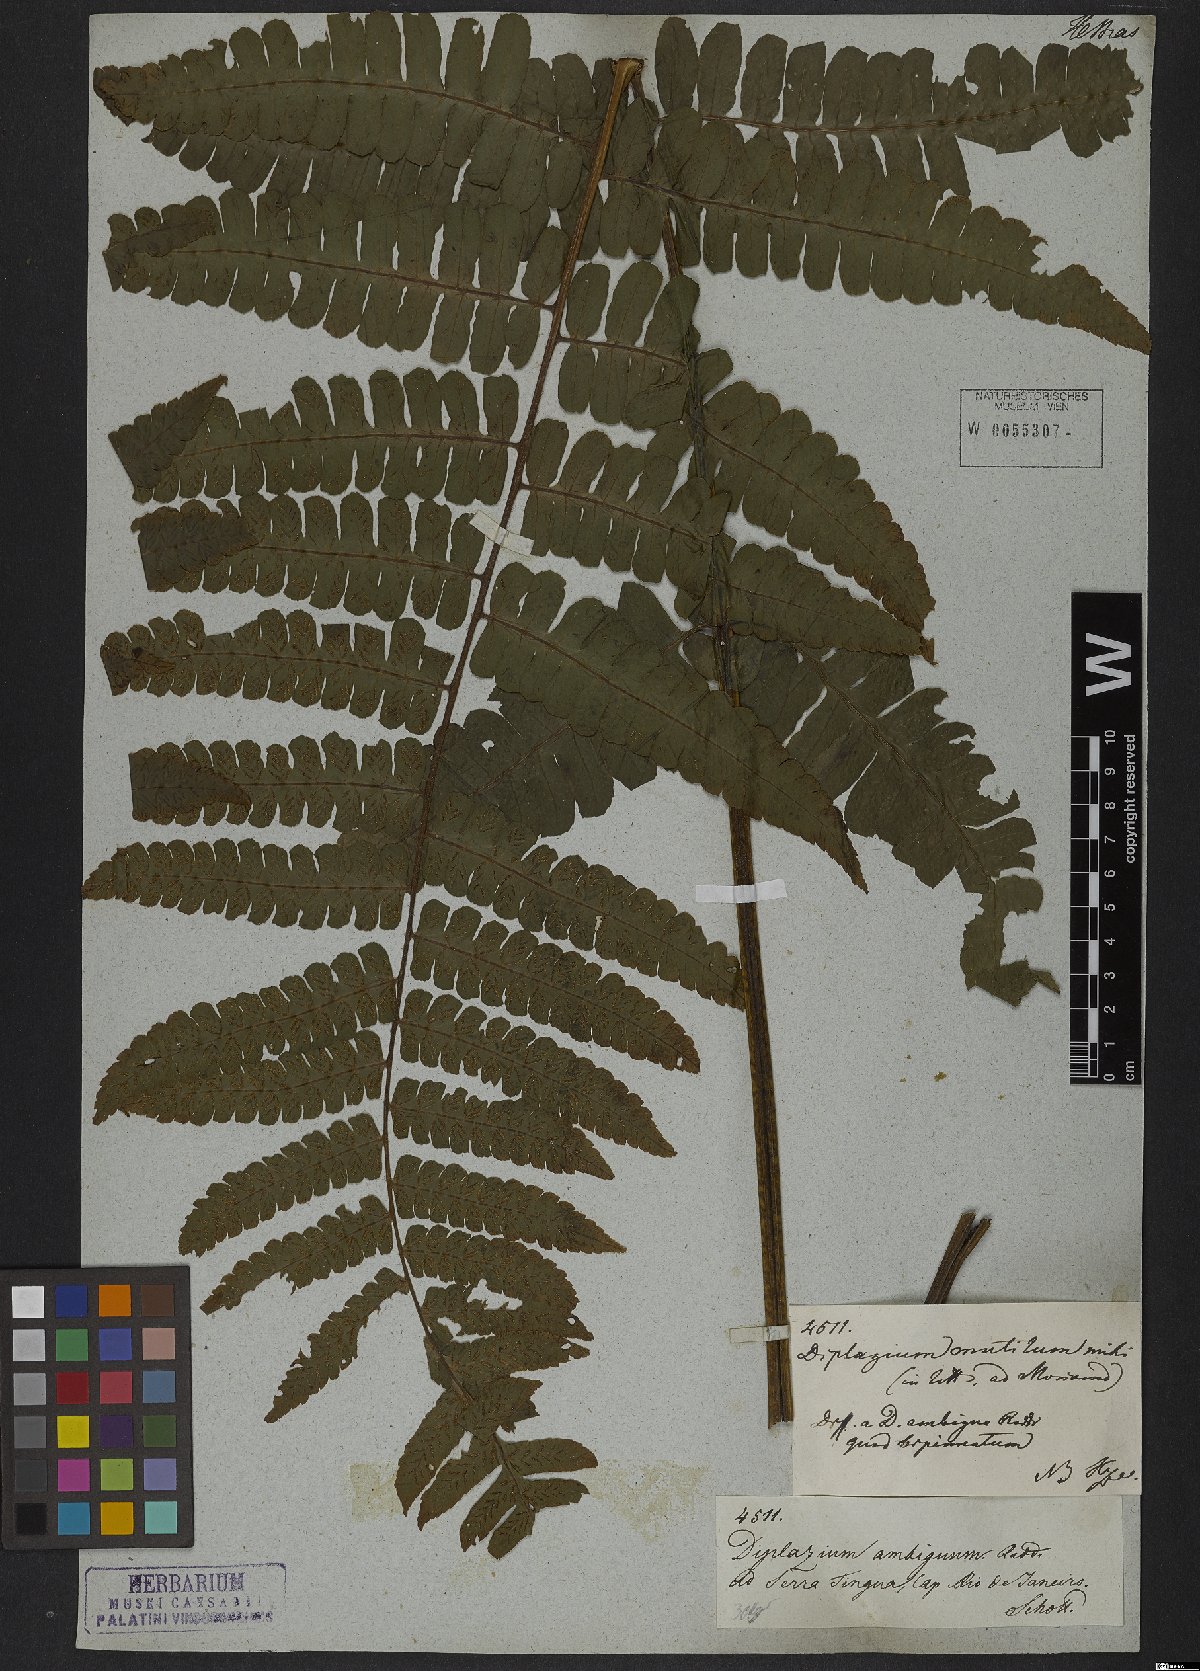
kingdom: Plantae
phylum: Tracheophyta
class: Polypodiopsida
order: Polypodiales
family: Athyriaceae
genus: Diplazium
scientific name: Diplazium mutilum
